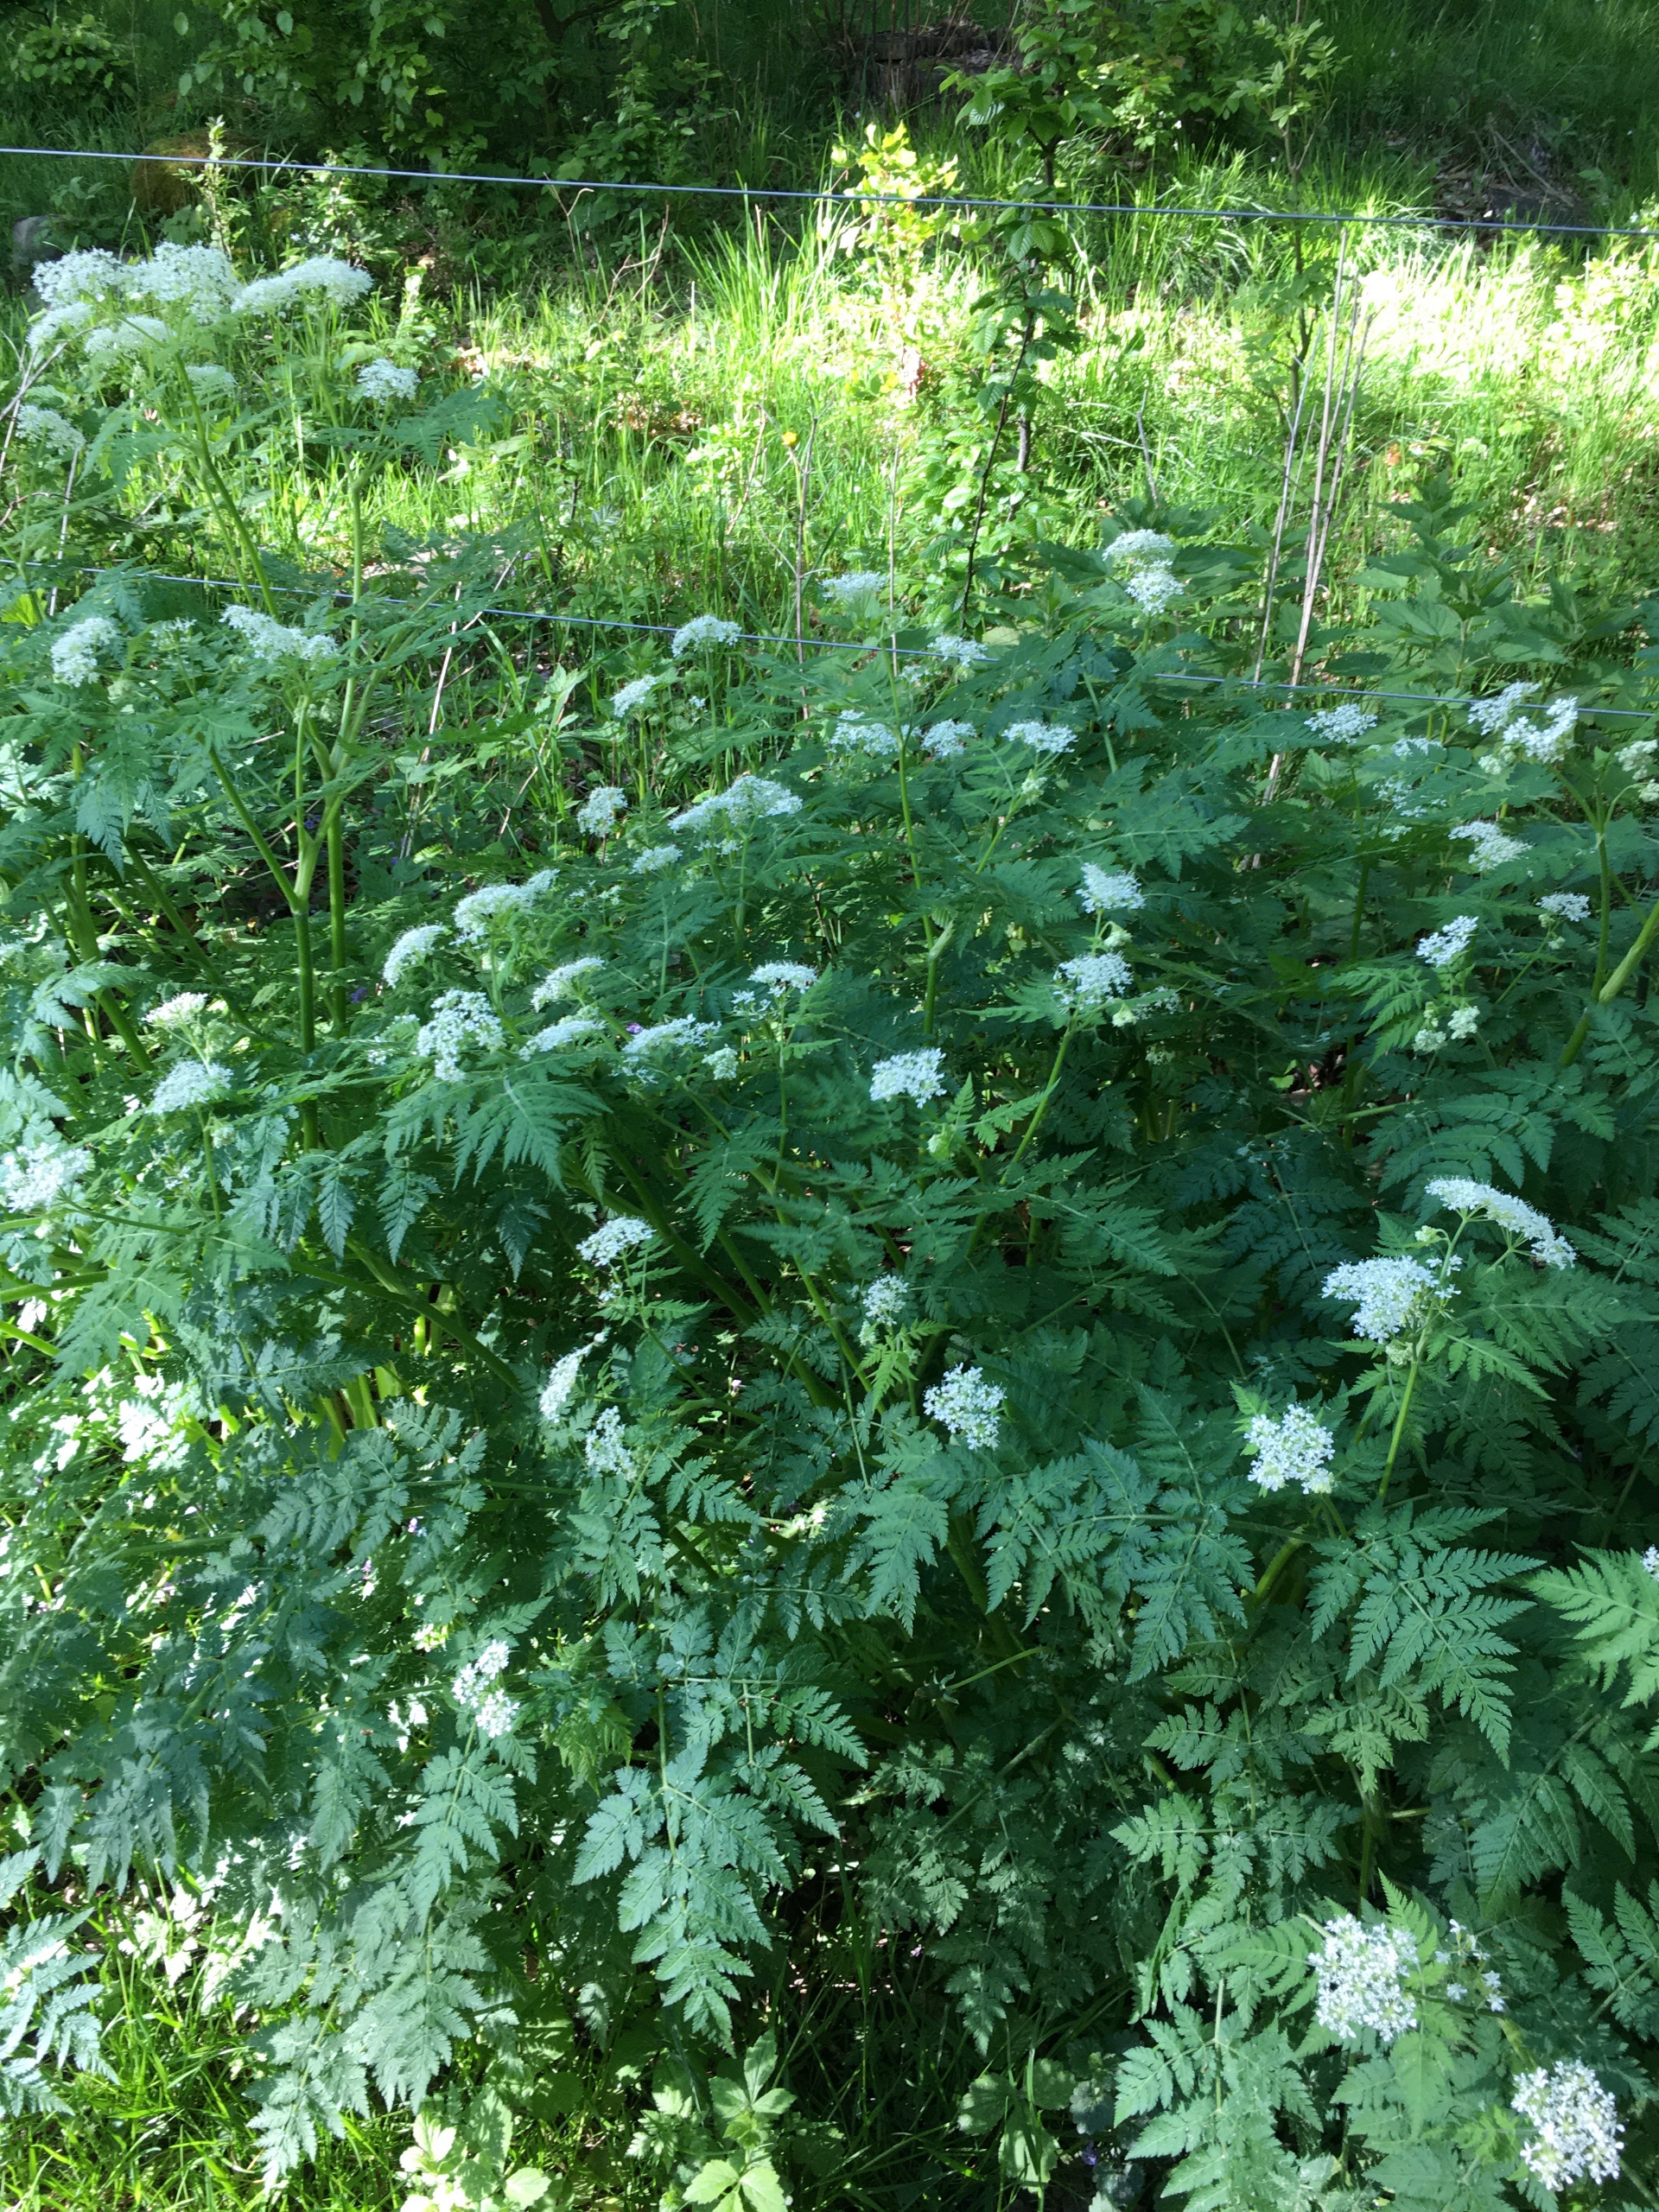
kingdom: Plantae
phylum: Tracheophyta
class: Magnoliopsida
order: Apiales
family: Apiaceae
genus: Myrrhis
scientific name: Myrrhis odorata
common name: Sødskærm
